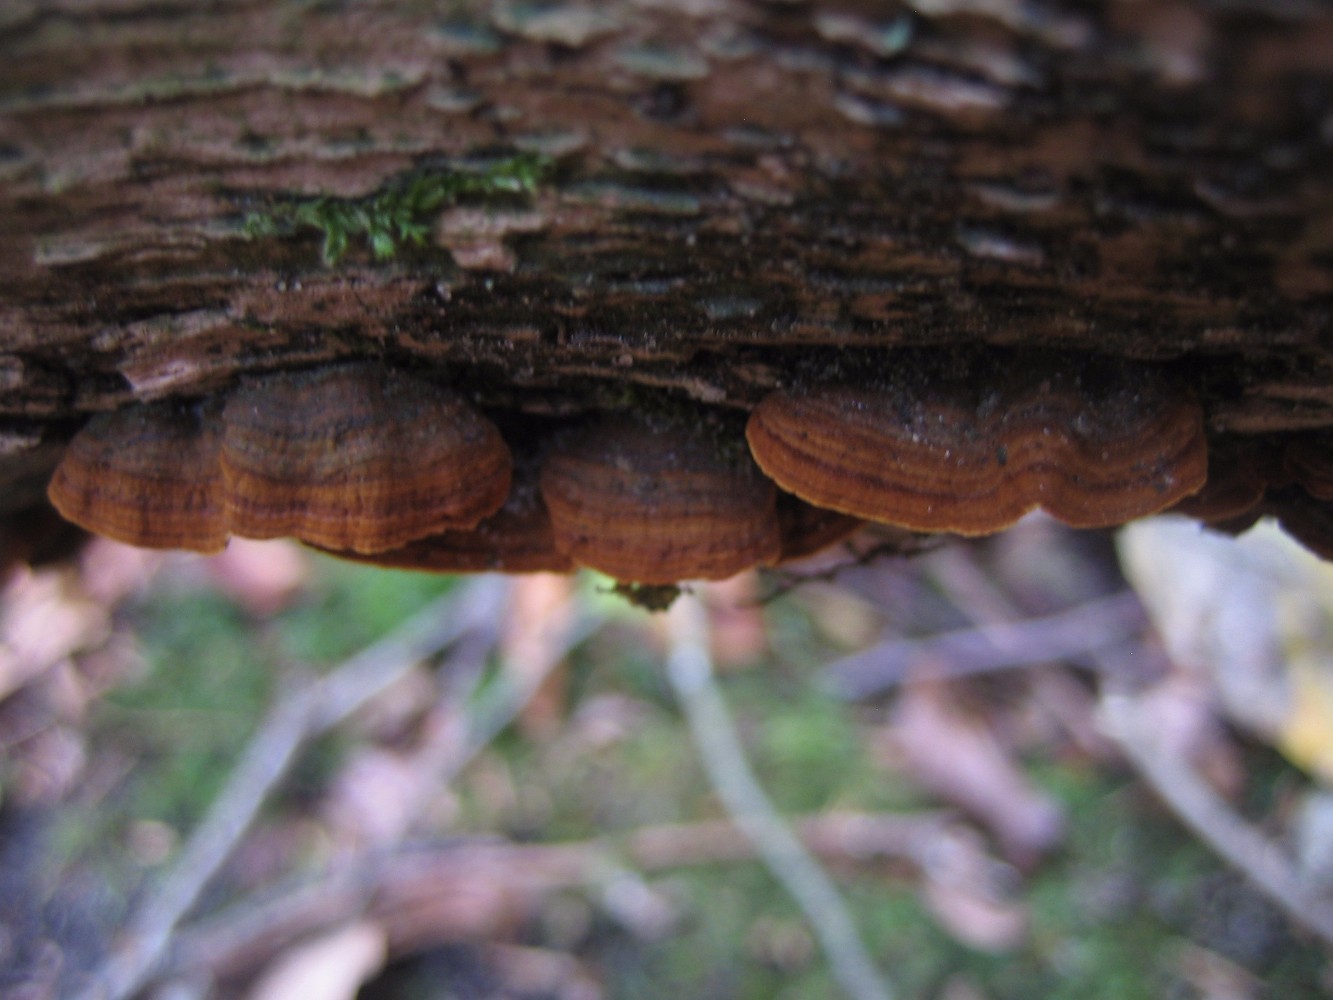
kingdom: Fungi
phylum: Basidiomycota
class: Agaricomycetes
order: Hymenochaetales
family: Hymenochaetaceae
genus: Hymenochaete
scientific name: Hymenochaete rubiginosa
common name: stiv ruslædersvamp
